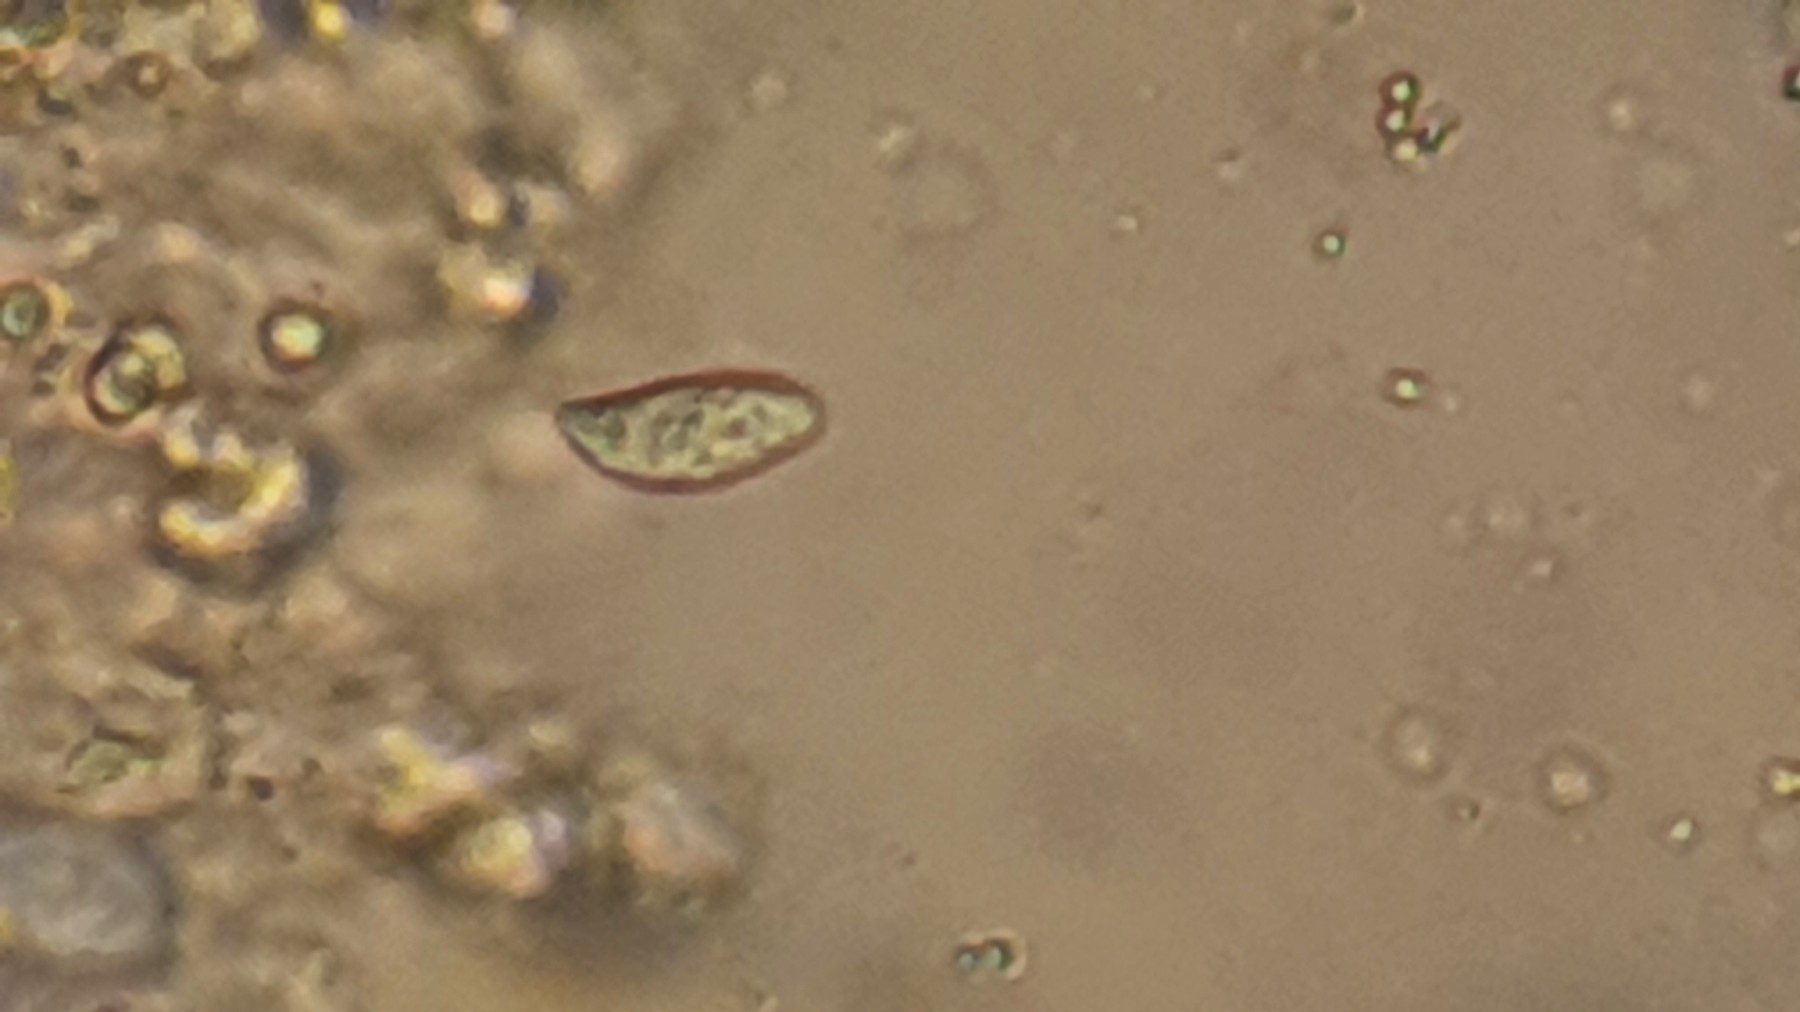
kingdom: Fungi
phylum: Basidiomycota
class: Agaricomycetes
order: Agaricales
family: Mycenaceae
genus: Hemimycena
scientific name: Hemimycena cucullata
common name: tætbladet huesvamp
